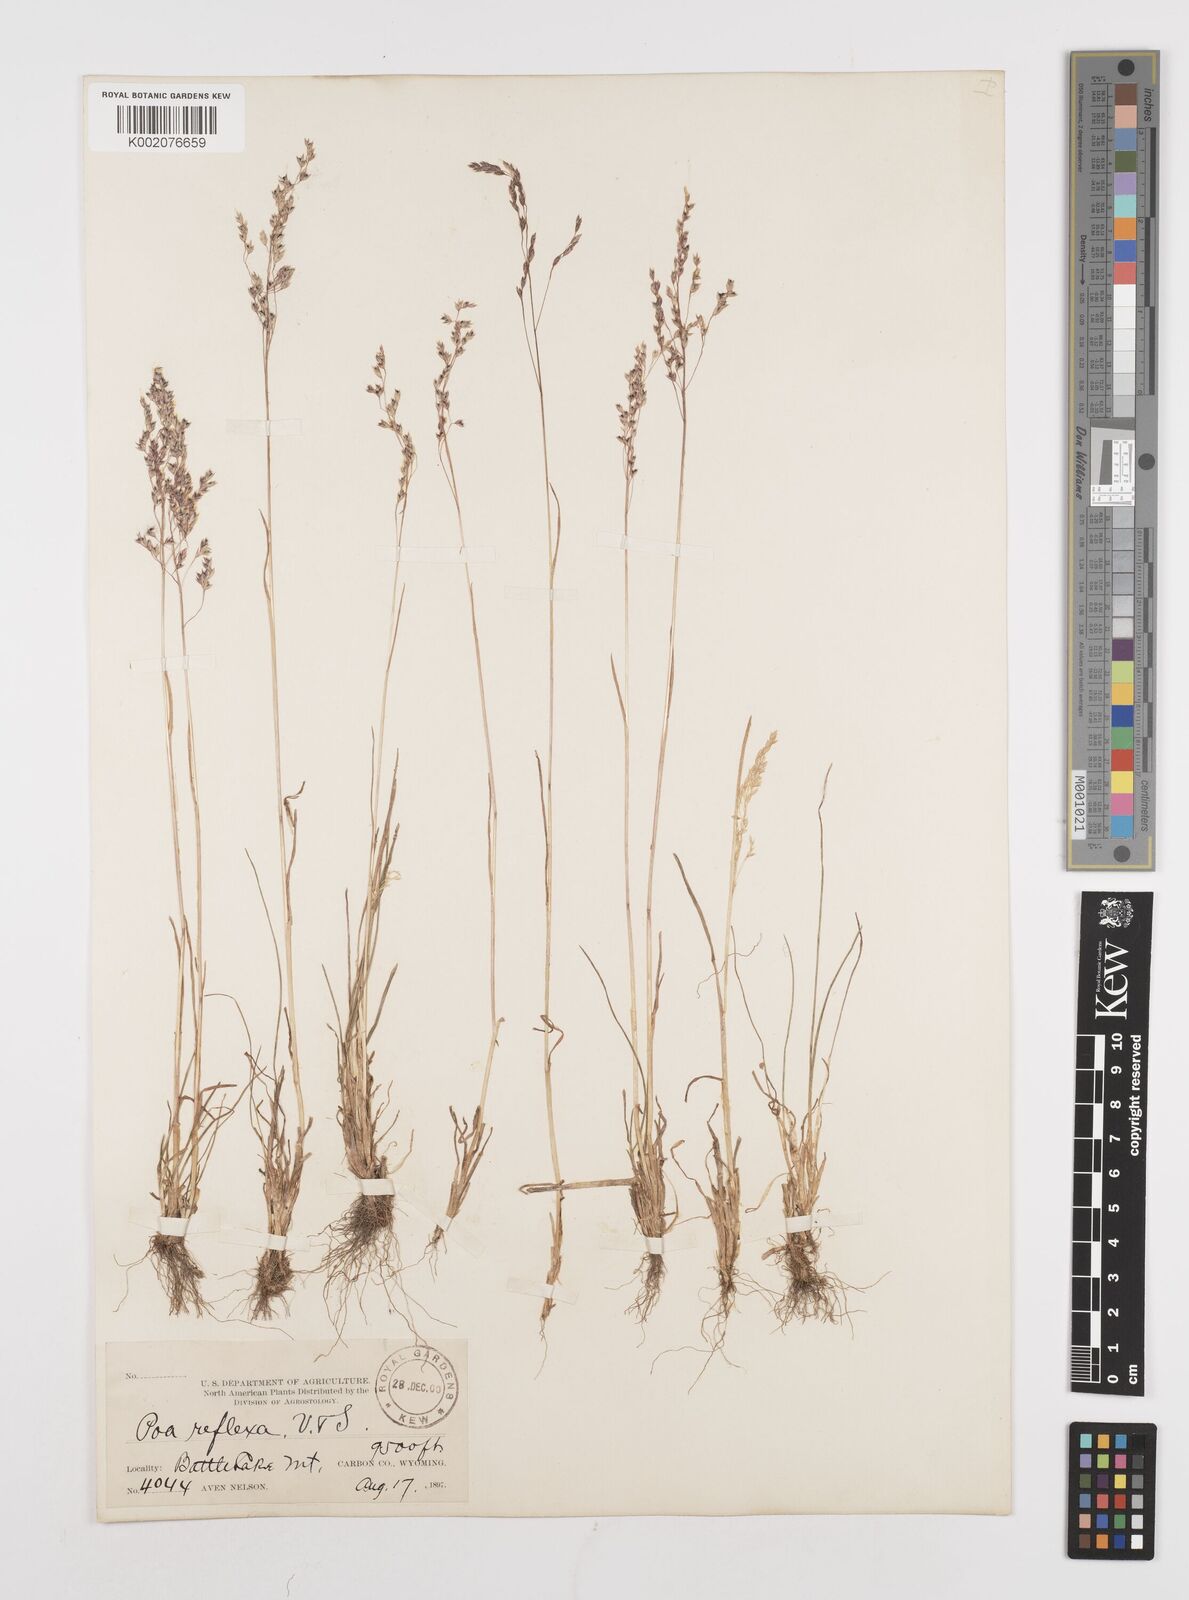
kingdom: Plantae
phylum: Tracheophyta
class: Liliopsida
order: Poales
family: Poaceae
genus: Poa
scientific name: Poa reflexa
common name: Nodding bluegrass
